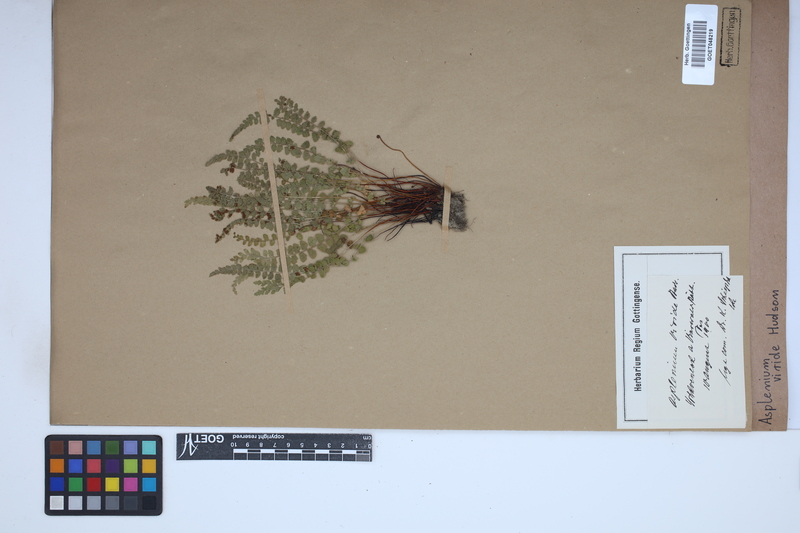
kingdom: Plantae
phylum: Tracheophyta
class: Polypodiopsida
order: Polypodiales
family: Aspleniaceae
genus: Asplenium
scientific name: Asplenium viride
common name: Green spleenwort
